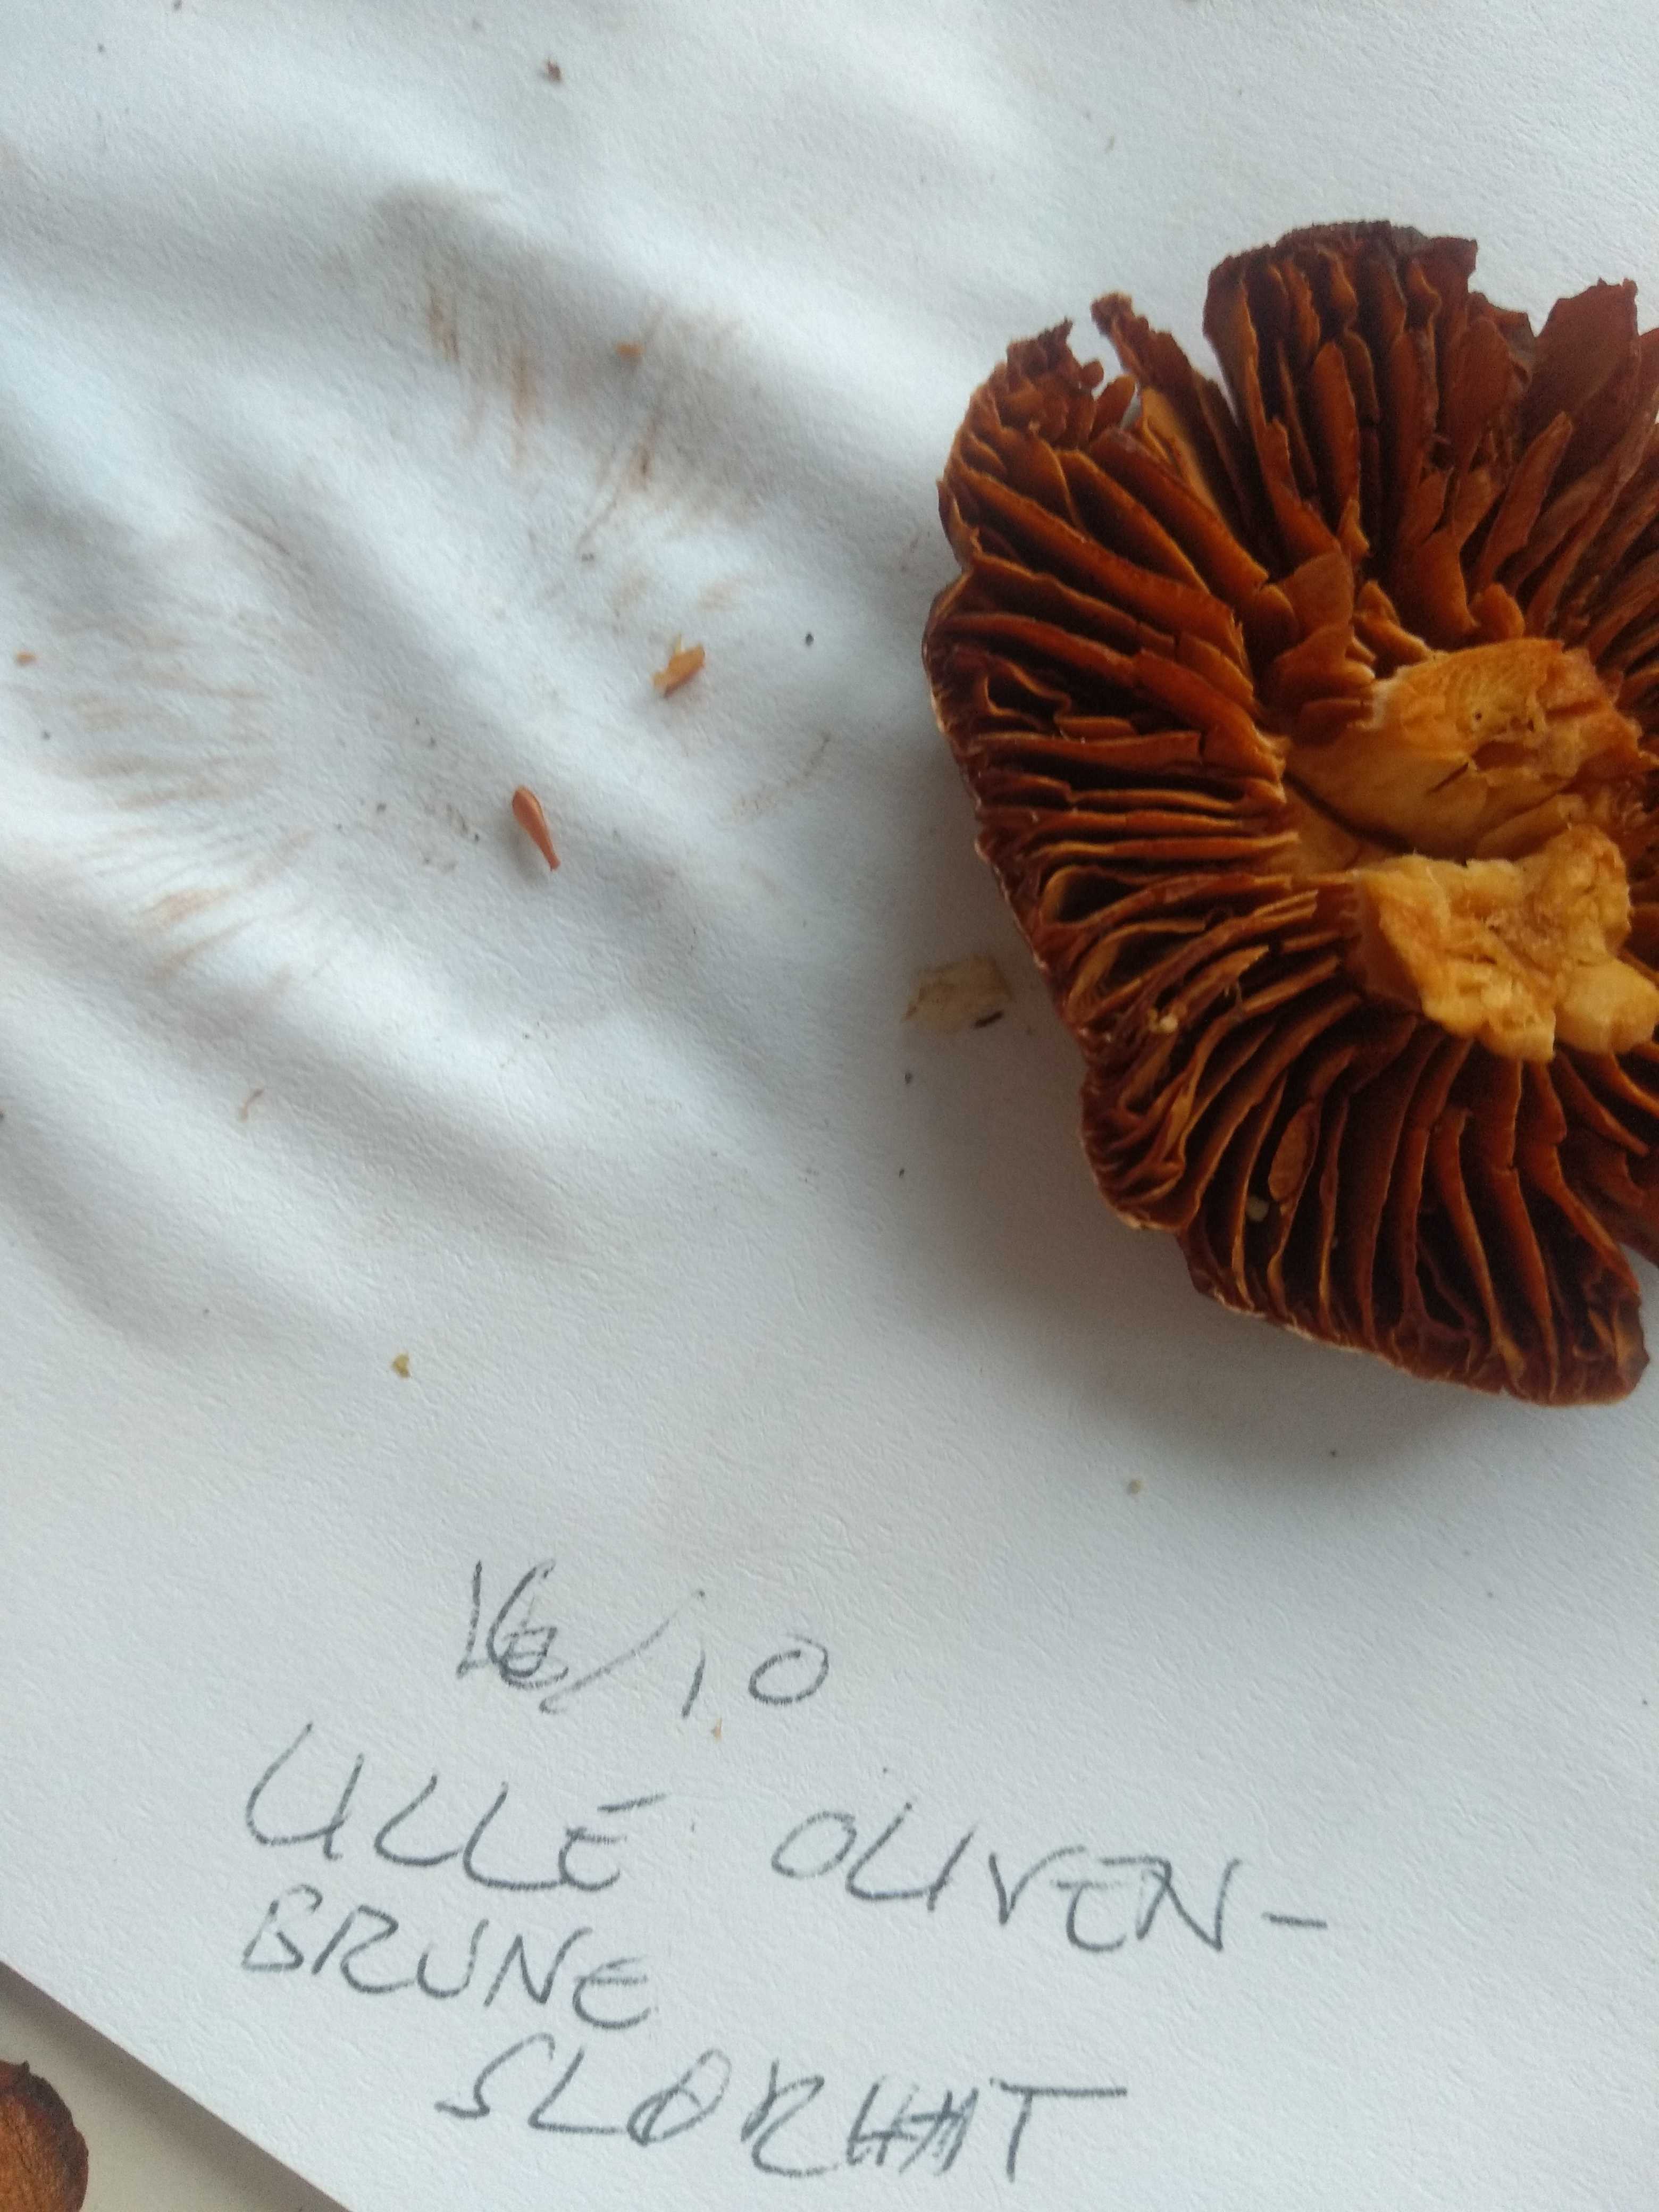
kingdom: Fungi
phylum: Basidiomycota
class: Agaricomycetes
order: Agaricales
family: Cortinariaceae
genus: Cortinarius
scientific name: Cortinarius
